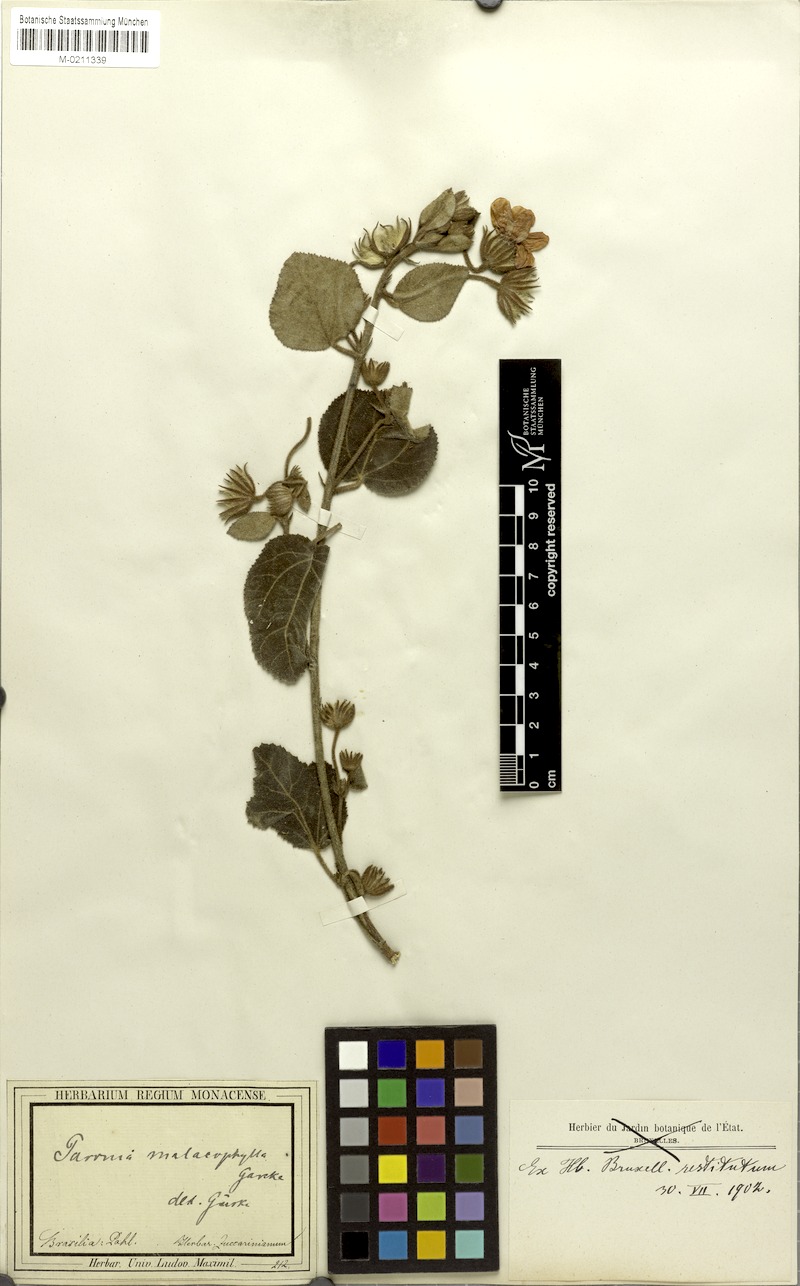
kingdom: Plantae
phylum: Tracheophyta
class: Magnoliopsida
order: Malvales
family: Malvaceae
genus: Pavonia
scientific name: Pavonia malacophylla
